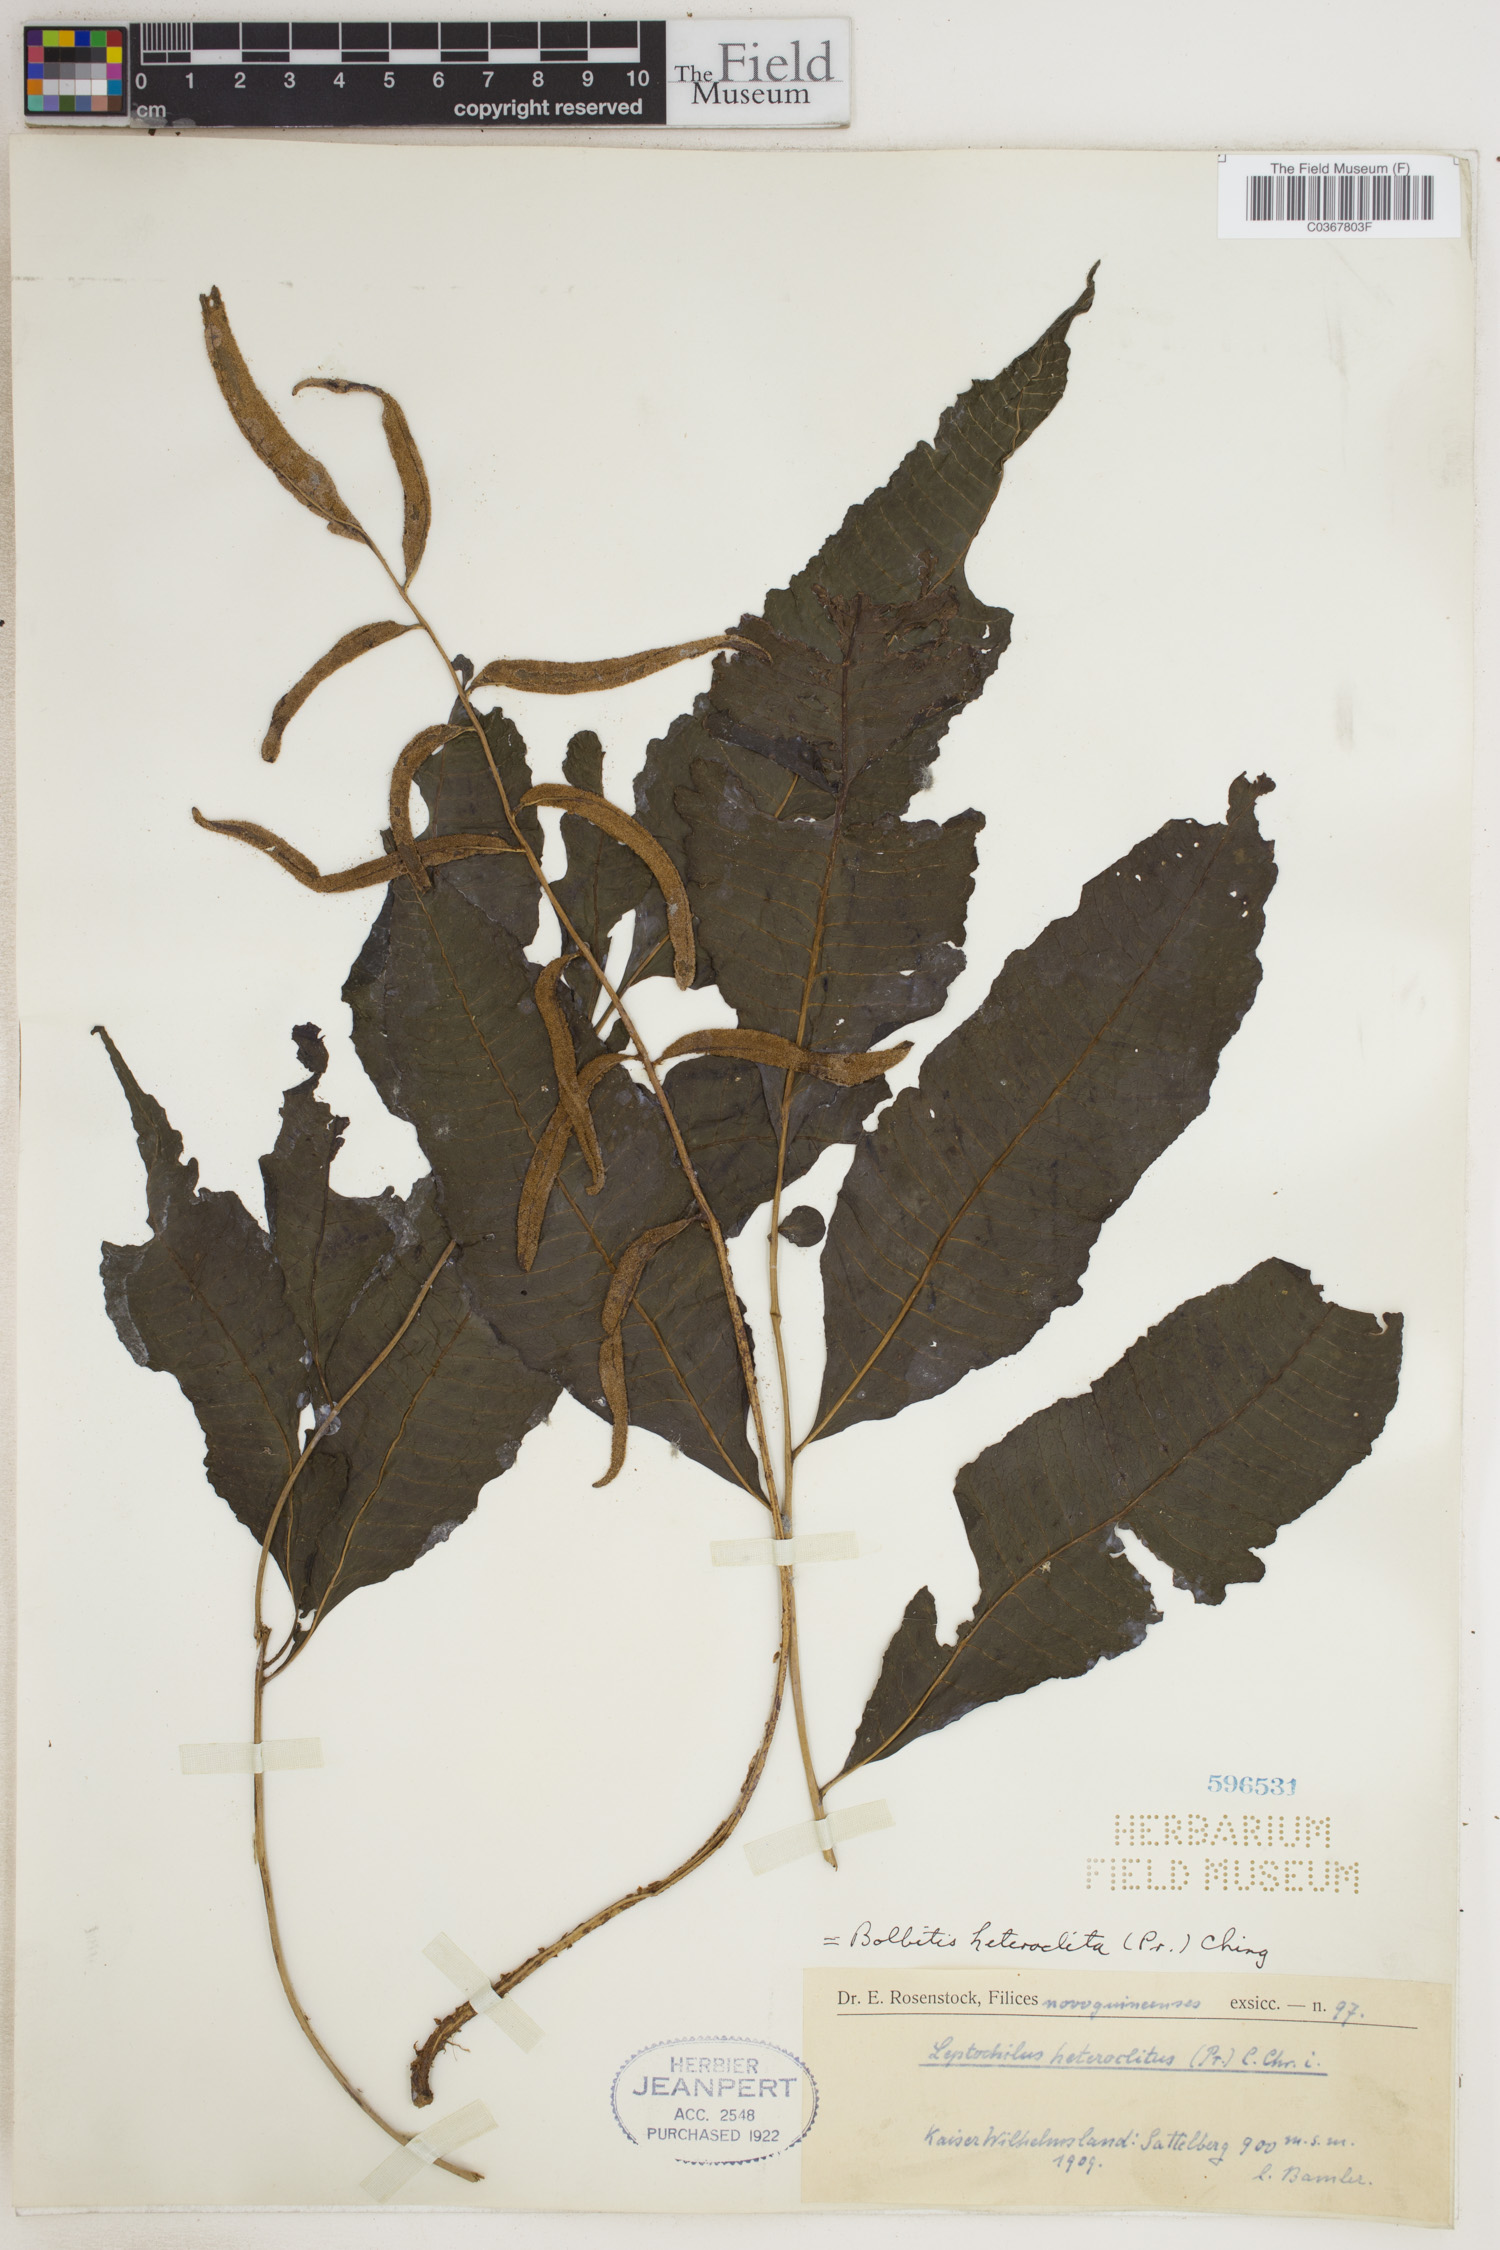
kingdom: Plantae
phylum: Tracheophyta
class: Polypodiopsida
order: Polypodiales
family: Dryopteridaceae
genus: Bolbitis
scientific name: Bolbitis heteroclita
